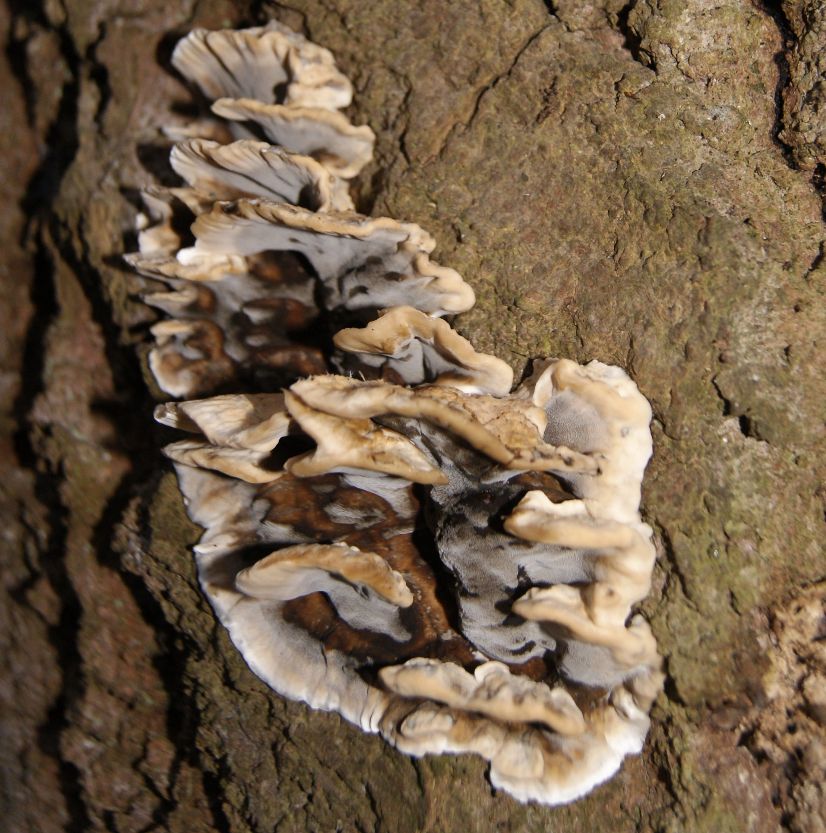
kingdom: Fungi
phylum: Basidiomycota
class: Agaricomycetes
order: Polyporales
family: Phanerochaetaceae
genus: Bjerkandera
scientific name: Bjerkandera adusta
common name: sveden sodporesvamp
